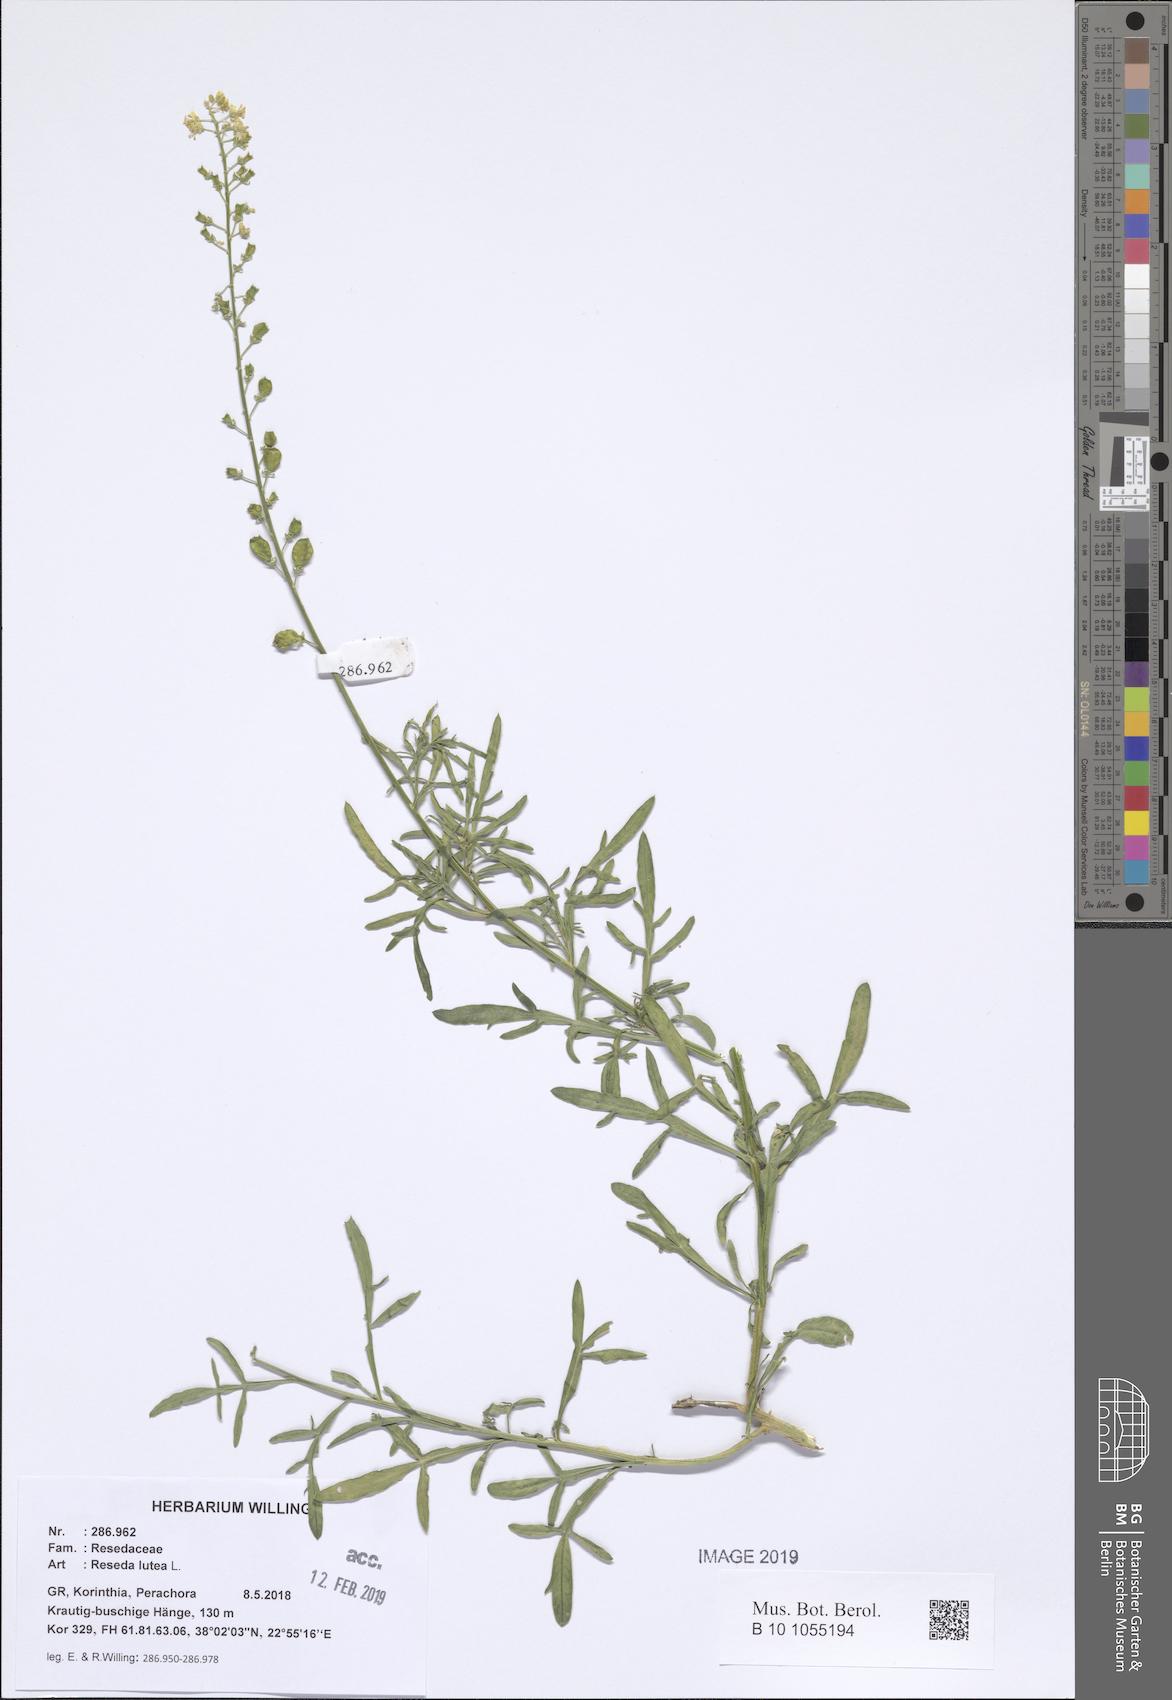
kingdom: Plantae
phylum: Tracheophyta
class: Magnoliopsida
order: Brassicales
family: Resedaceae
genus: Reseda
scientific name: Reseda lutea
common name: Wild mignonette
